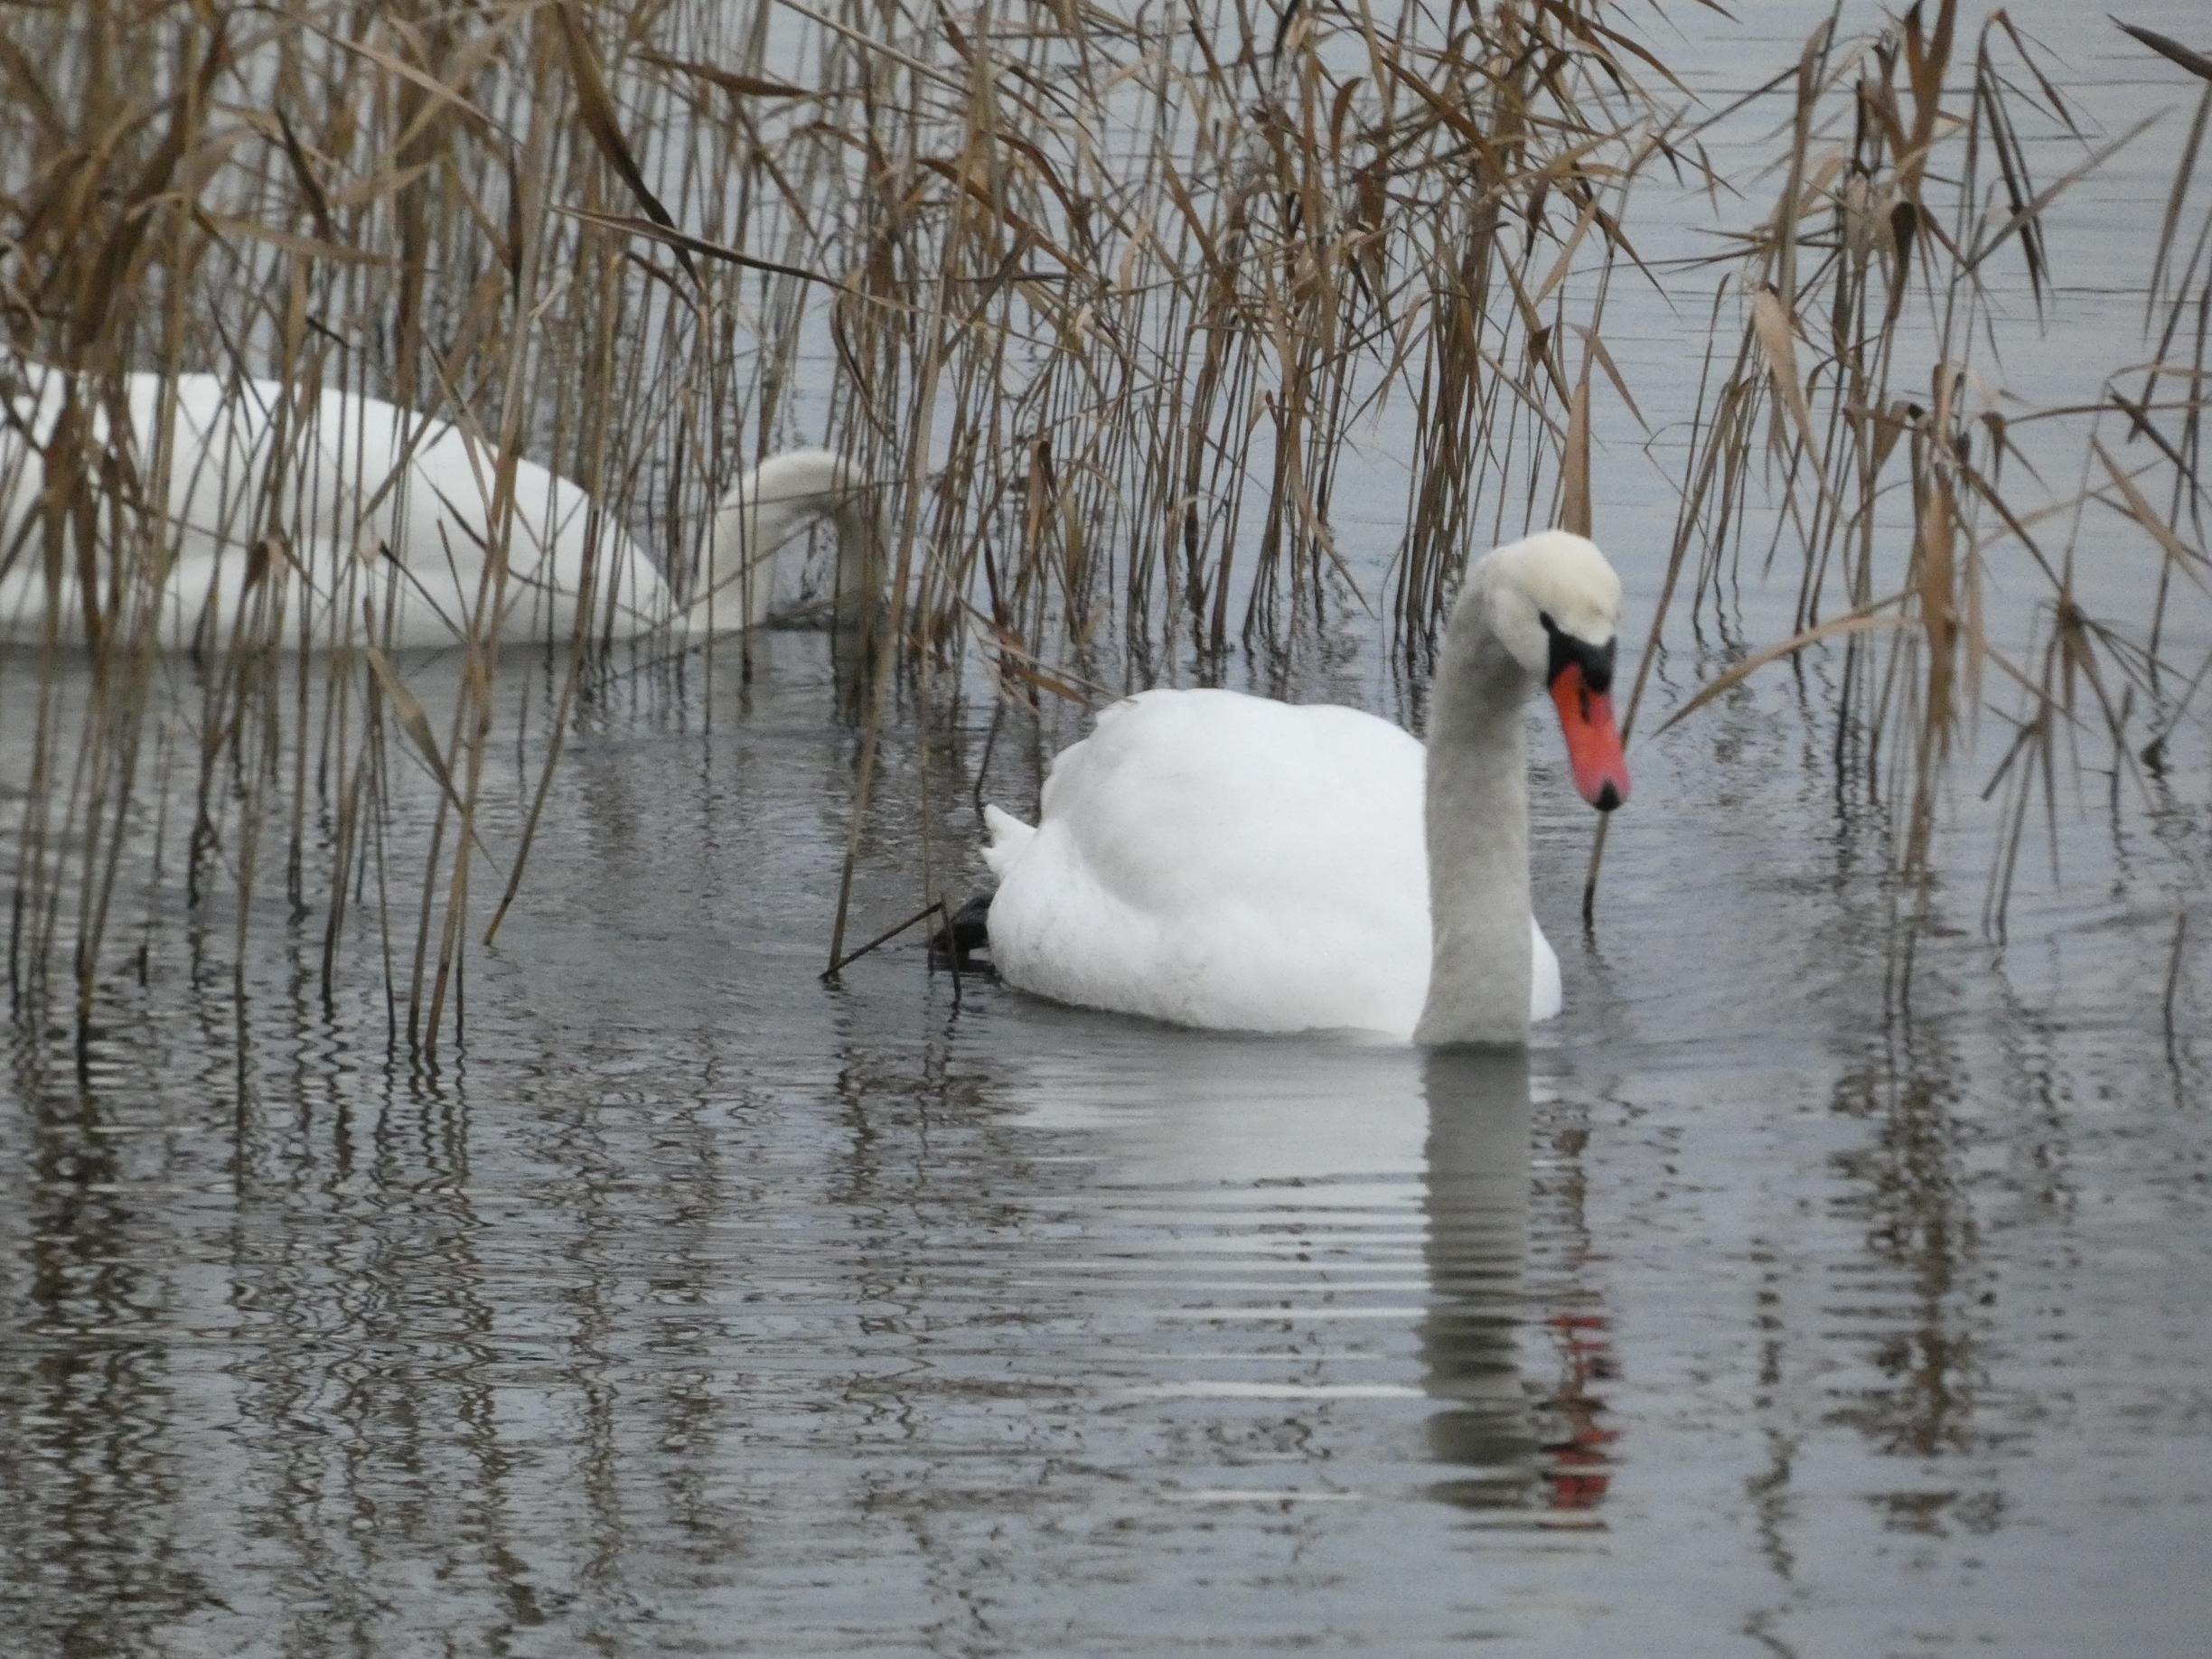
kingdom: Animalia
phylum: Chordata
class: Aves
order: Anseriformes
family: Anatidae
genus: Cygnus
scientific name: Cygnus olor
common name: Knopsvane
